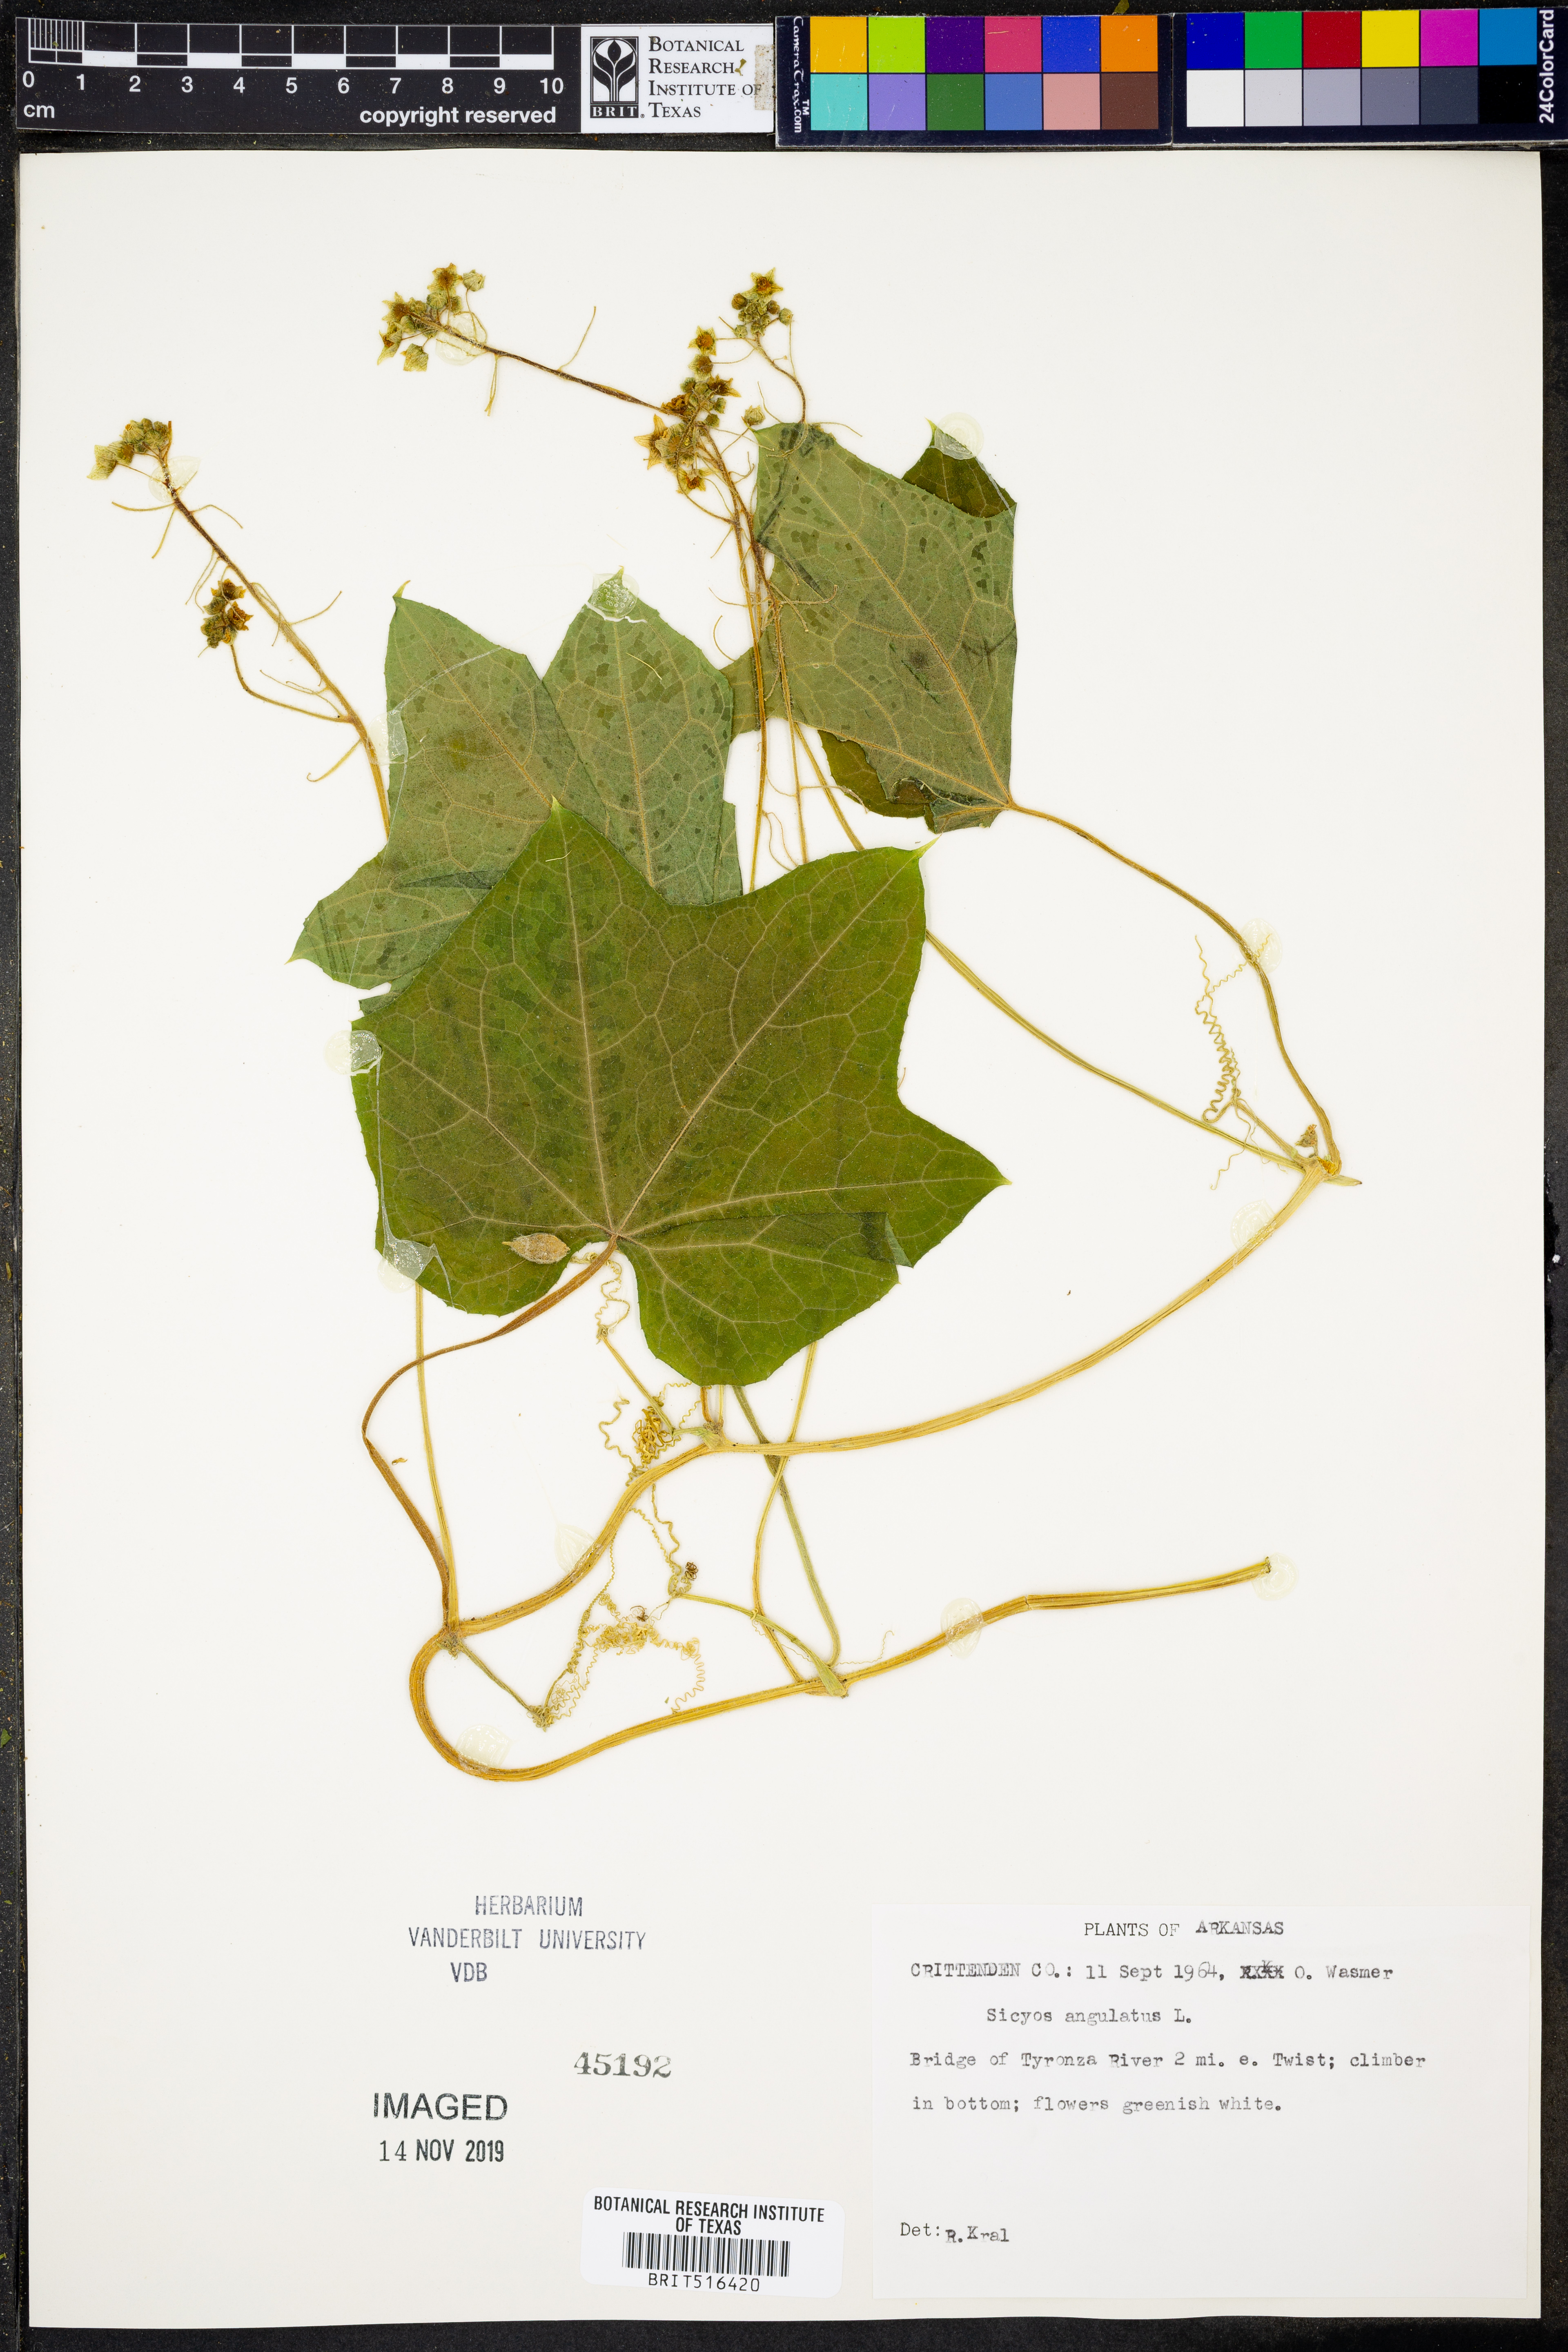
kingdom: Plantae
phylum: Tracheophyta
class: Magnoliopsida
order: Cucurbitales
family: Cucurbitaceae
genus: Sicyos
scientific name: Sicyos angulatus
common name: Angled burr cucumber
